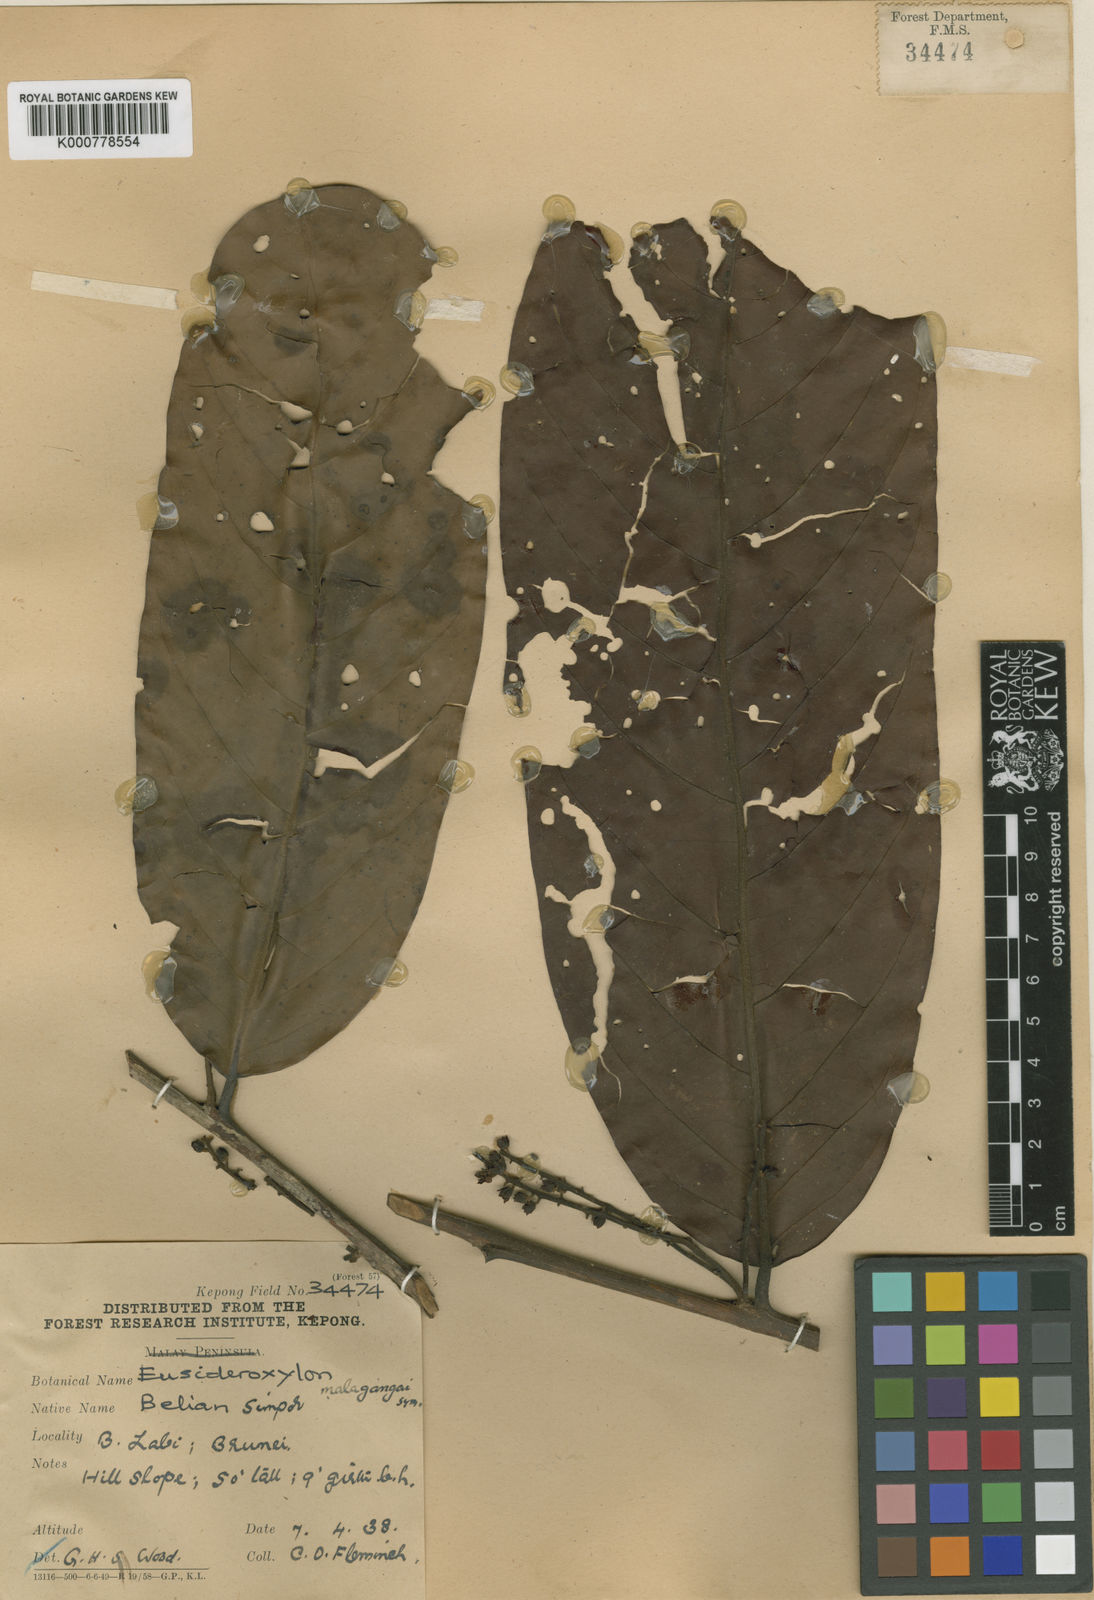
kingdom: Plantae
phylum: Tracheophyta
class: Magnoliopsida
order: Laurales
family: Lauraceae
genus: Potoxylon
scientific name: Potoxylon melagangai
